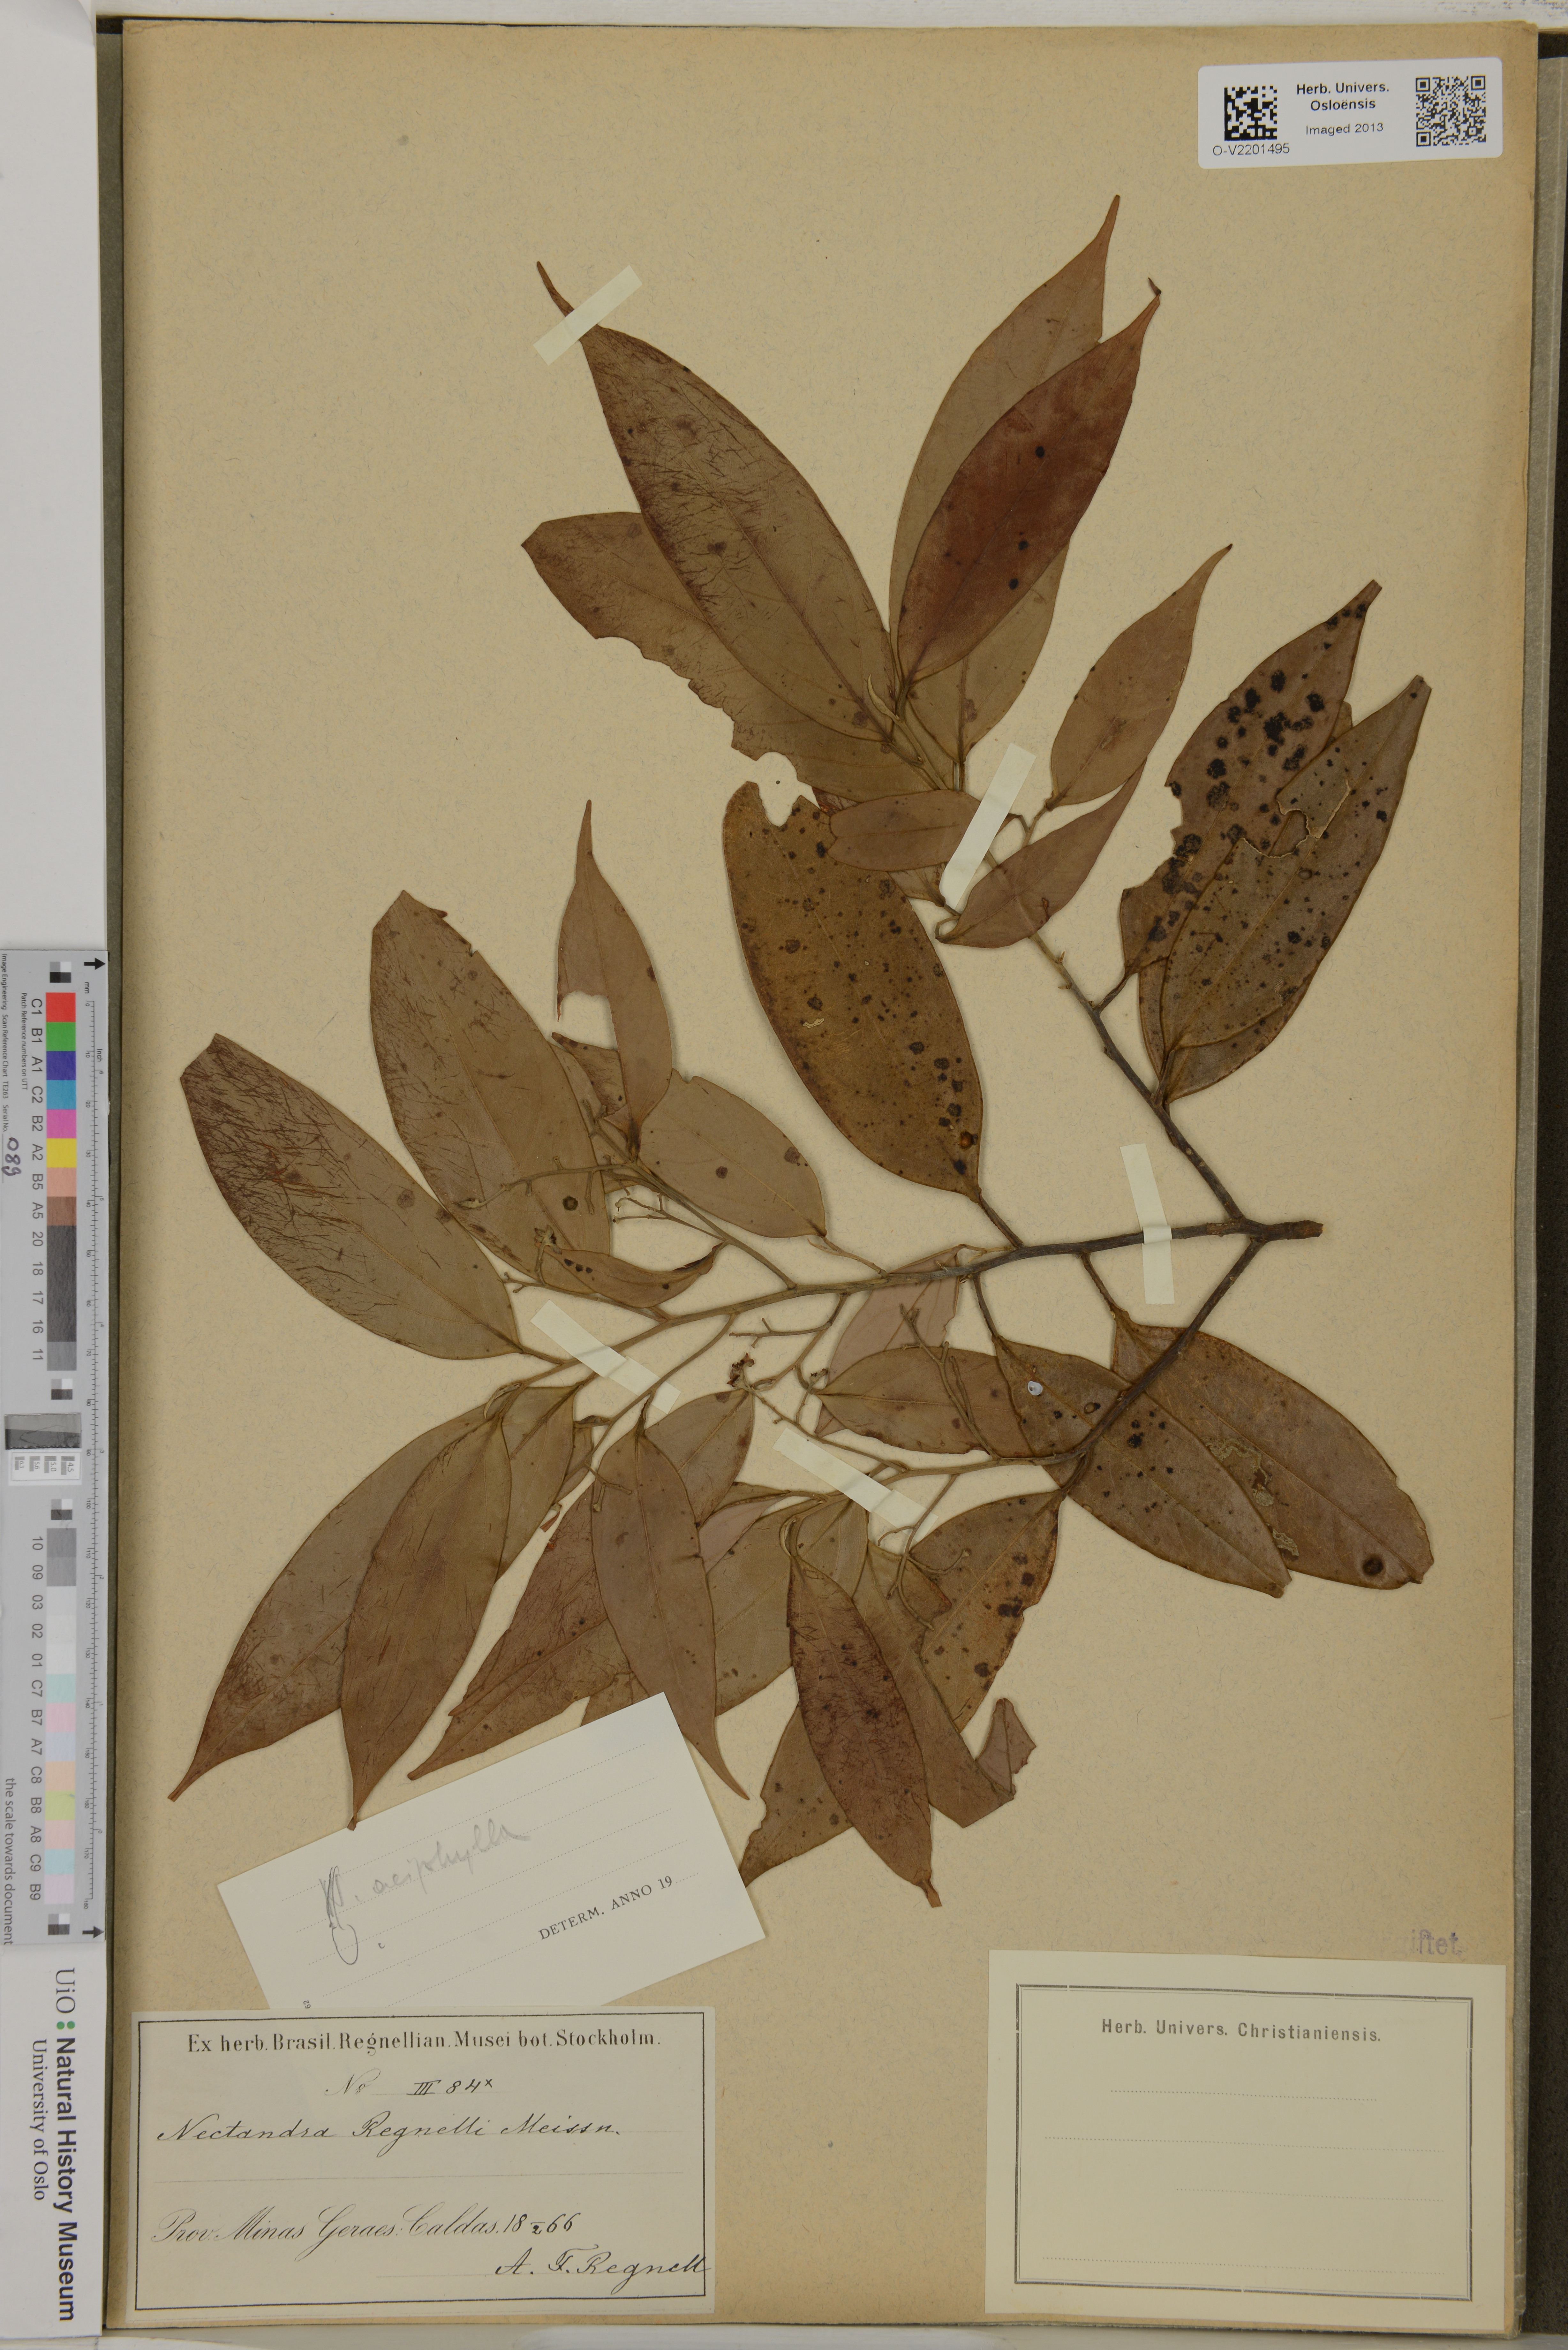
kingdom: Plantae
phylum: Tracheophyta
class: Magnoliopsida
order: Laurales
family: Lauraceae
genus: Ocotea
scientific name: Ocotea aciphylla
